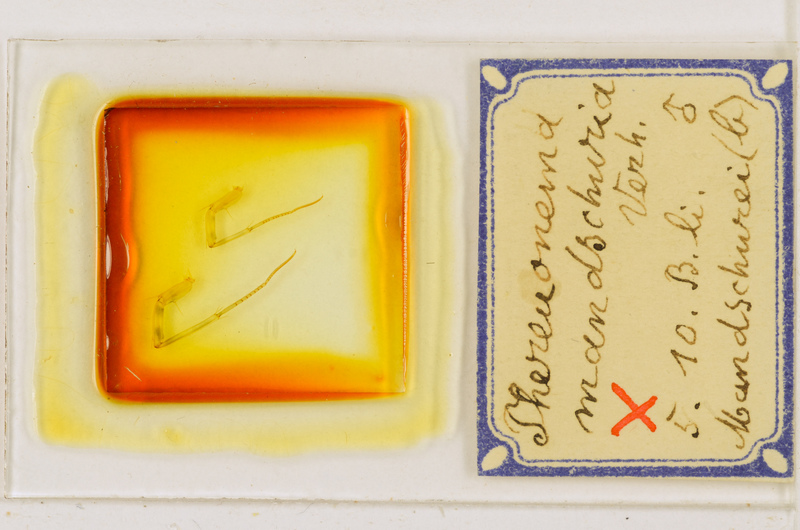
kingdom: Animalia
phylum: Arthropoda
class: Chilopoda
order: Scutigeromorpha
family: Scutigeridae
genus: Thereuonema
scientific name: Thereuonema tuberculata
